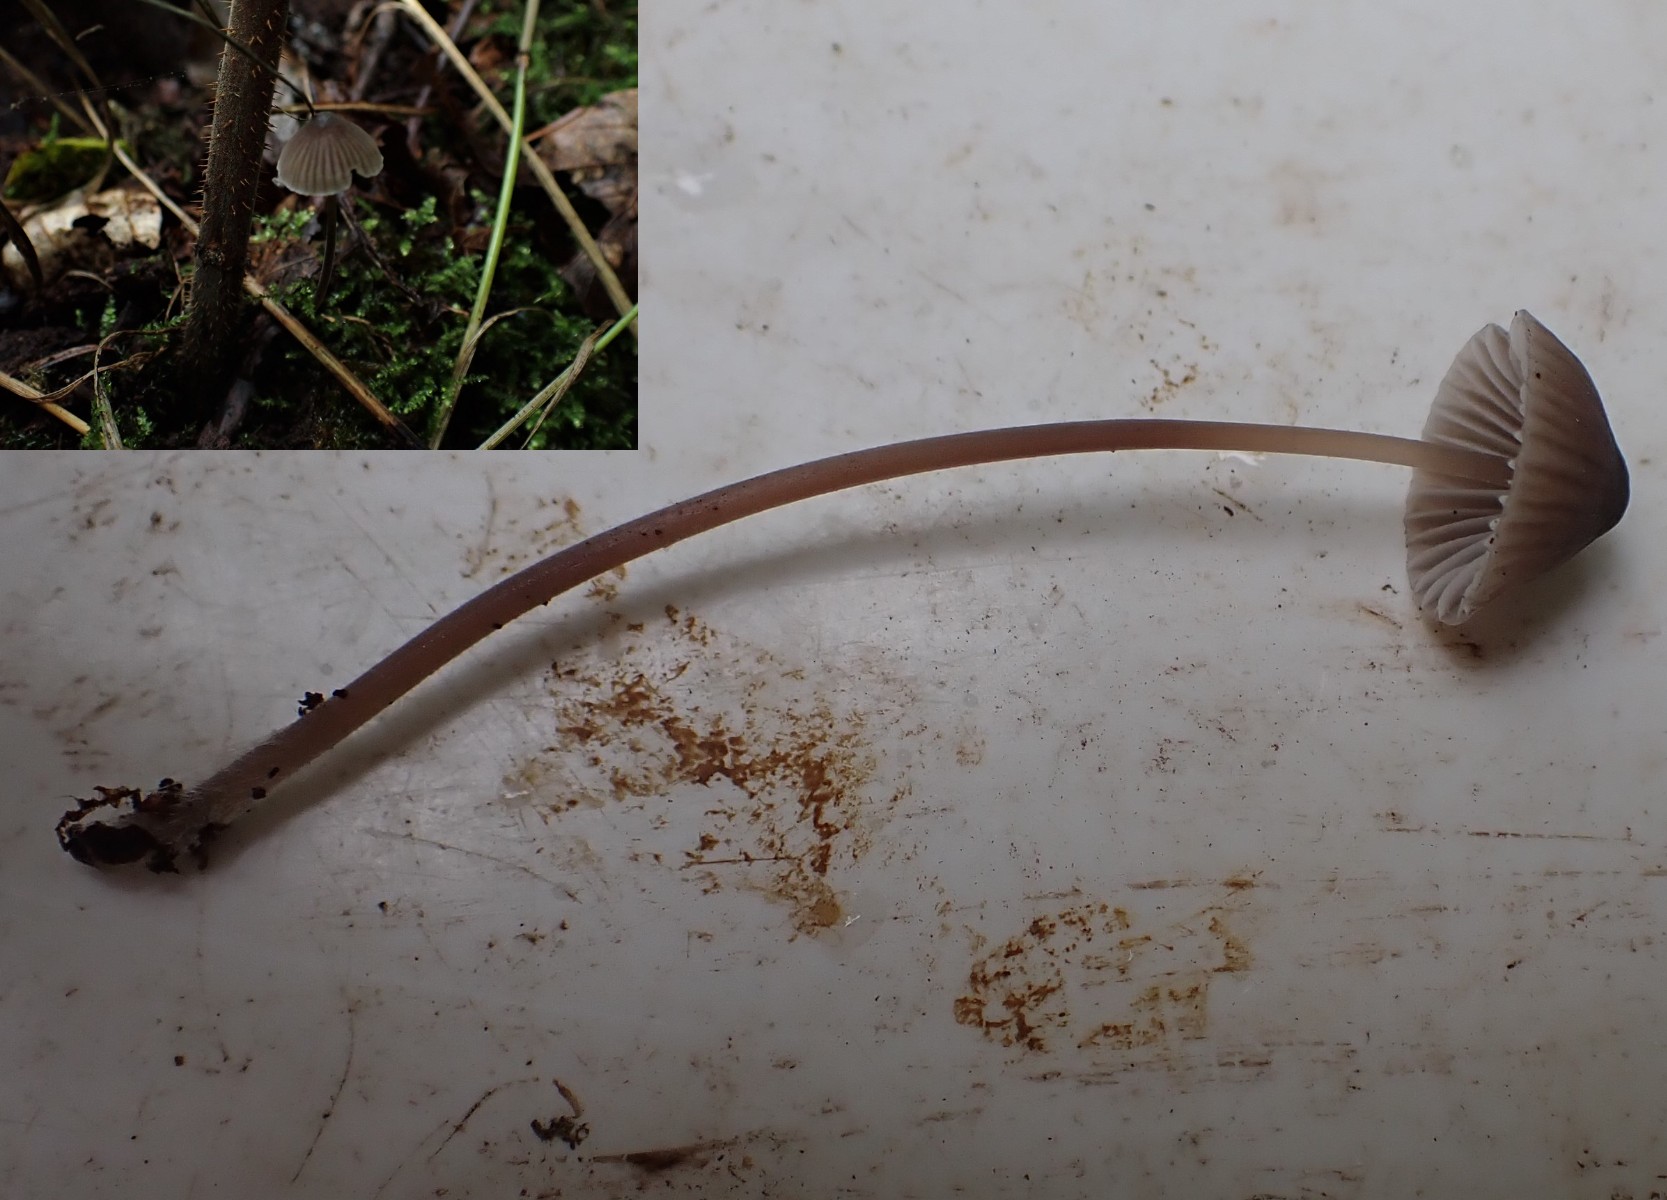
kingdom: Fungi
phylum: Basidiomycota
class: Agaricomycetes
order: Agaricales
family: Mycenaceae
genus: Mycena
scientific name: Mycena leptocephala
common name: klor-huesvamp
